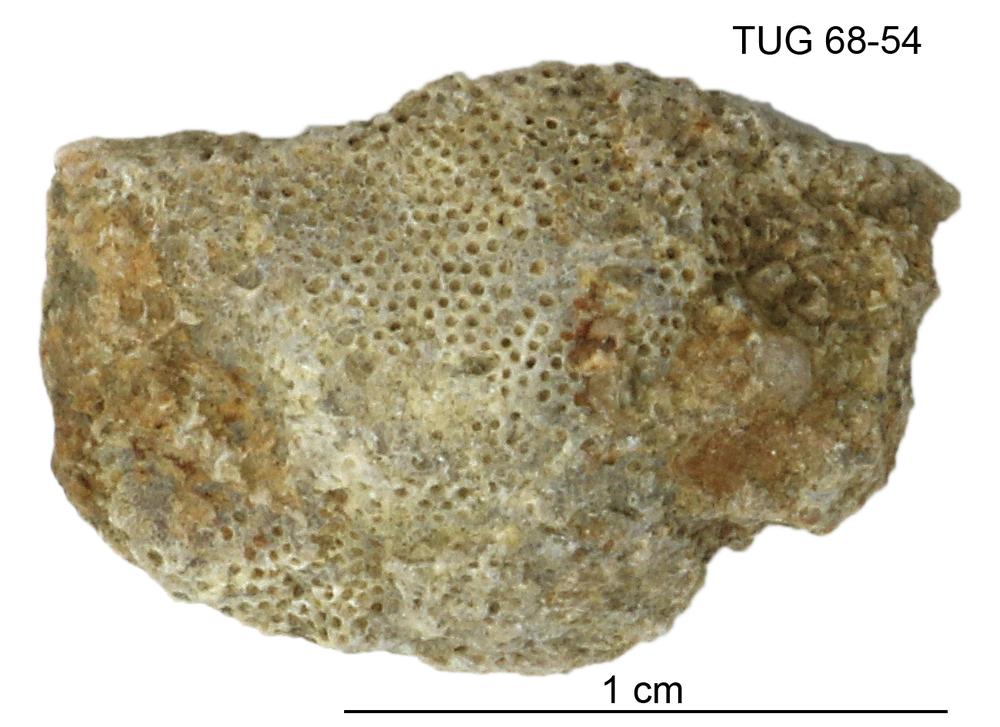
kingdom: Animalia
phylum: Bryozoa
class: Stenolaemata
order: Cystoporida
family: Fistuliporidae
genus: Fistulipora
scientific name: Fistulipora przhidolensis
